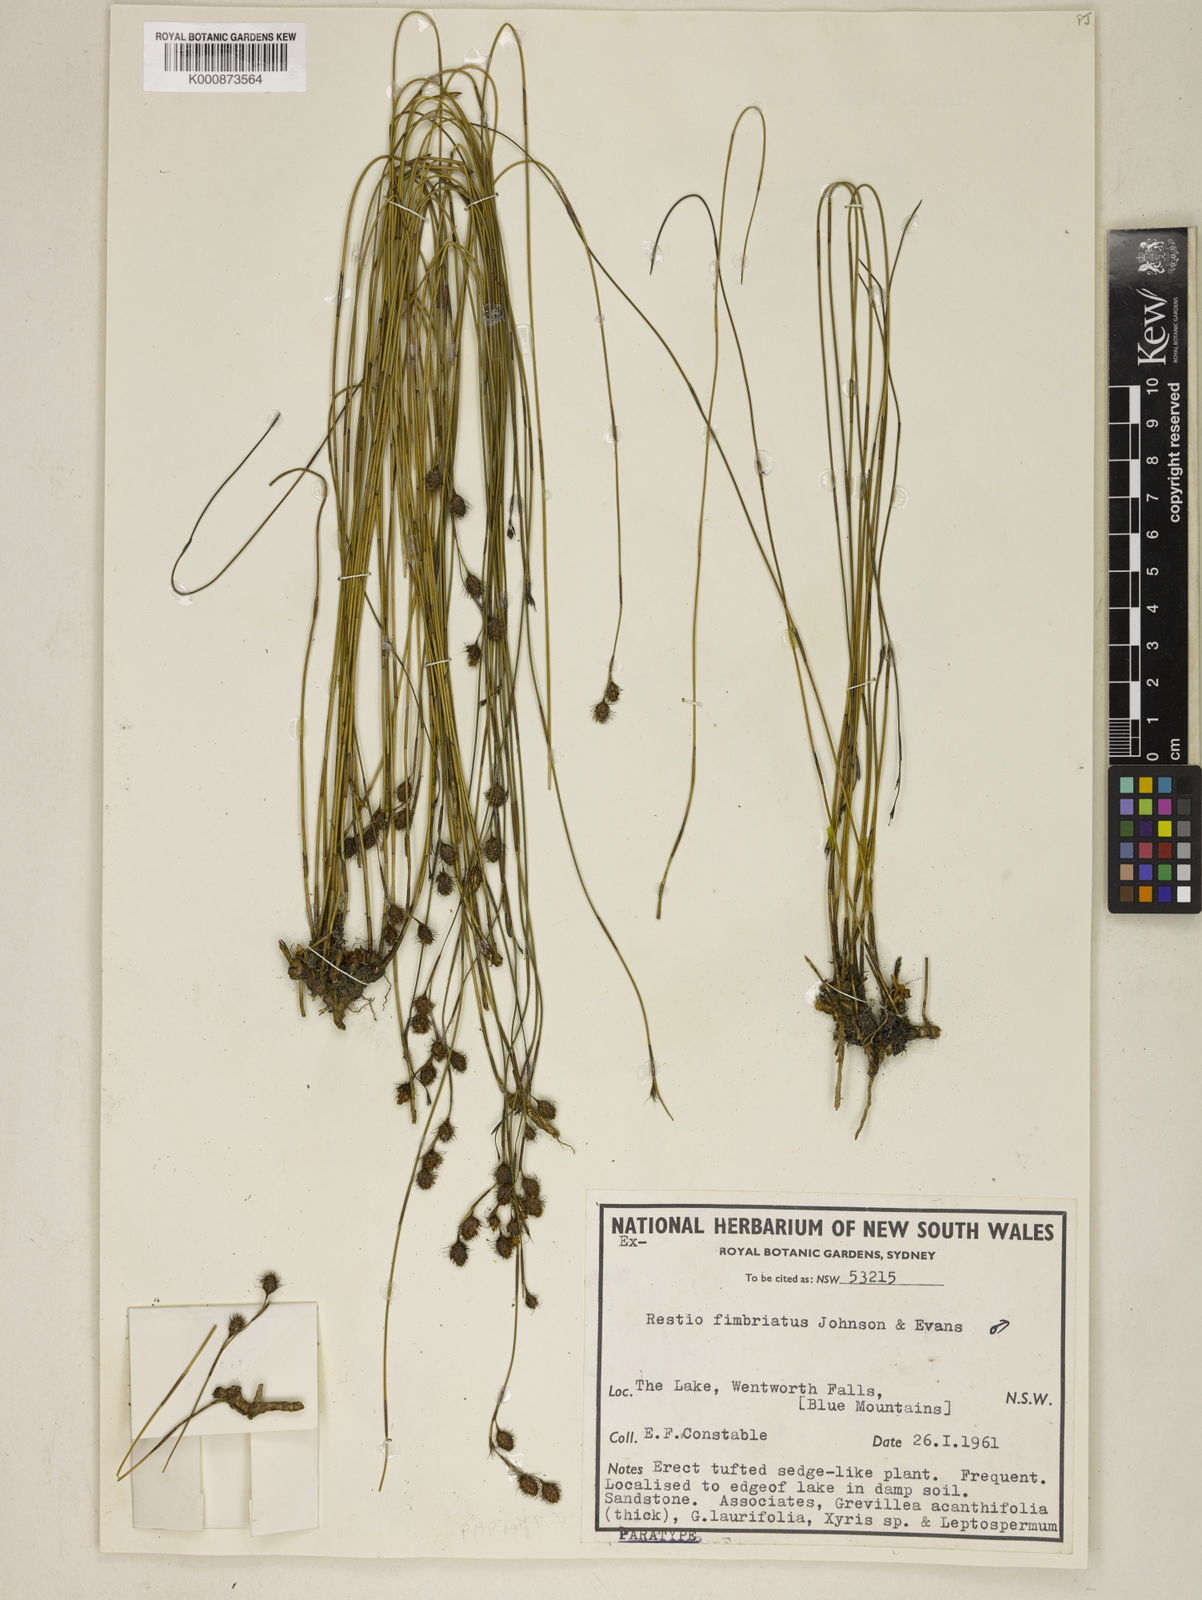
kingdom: Plantae
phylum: Tracheophyta
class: Liliopsida
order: Poales
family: Restionaceae
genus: Baloskion
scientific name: Baloskion fimbriatum
